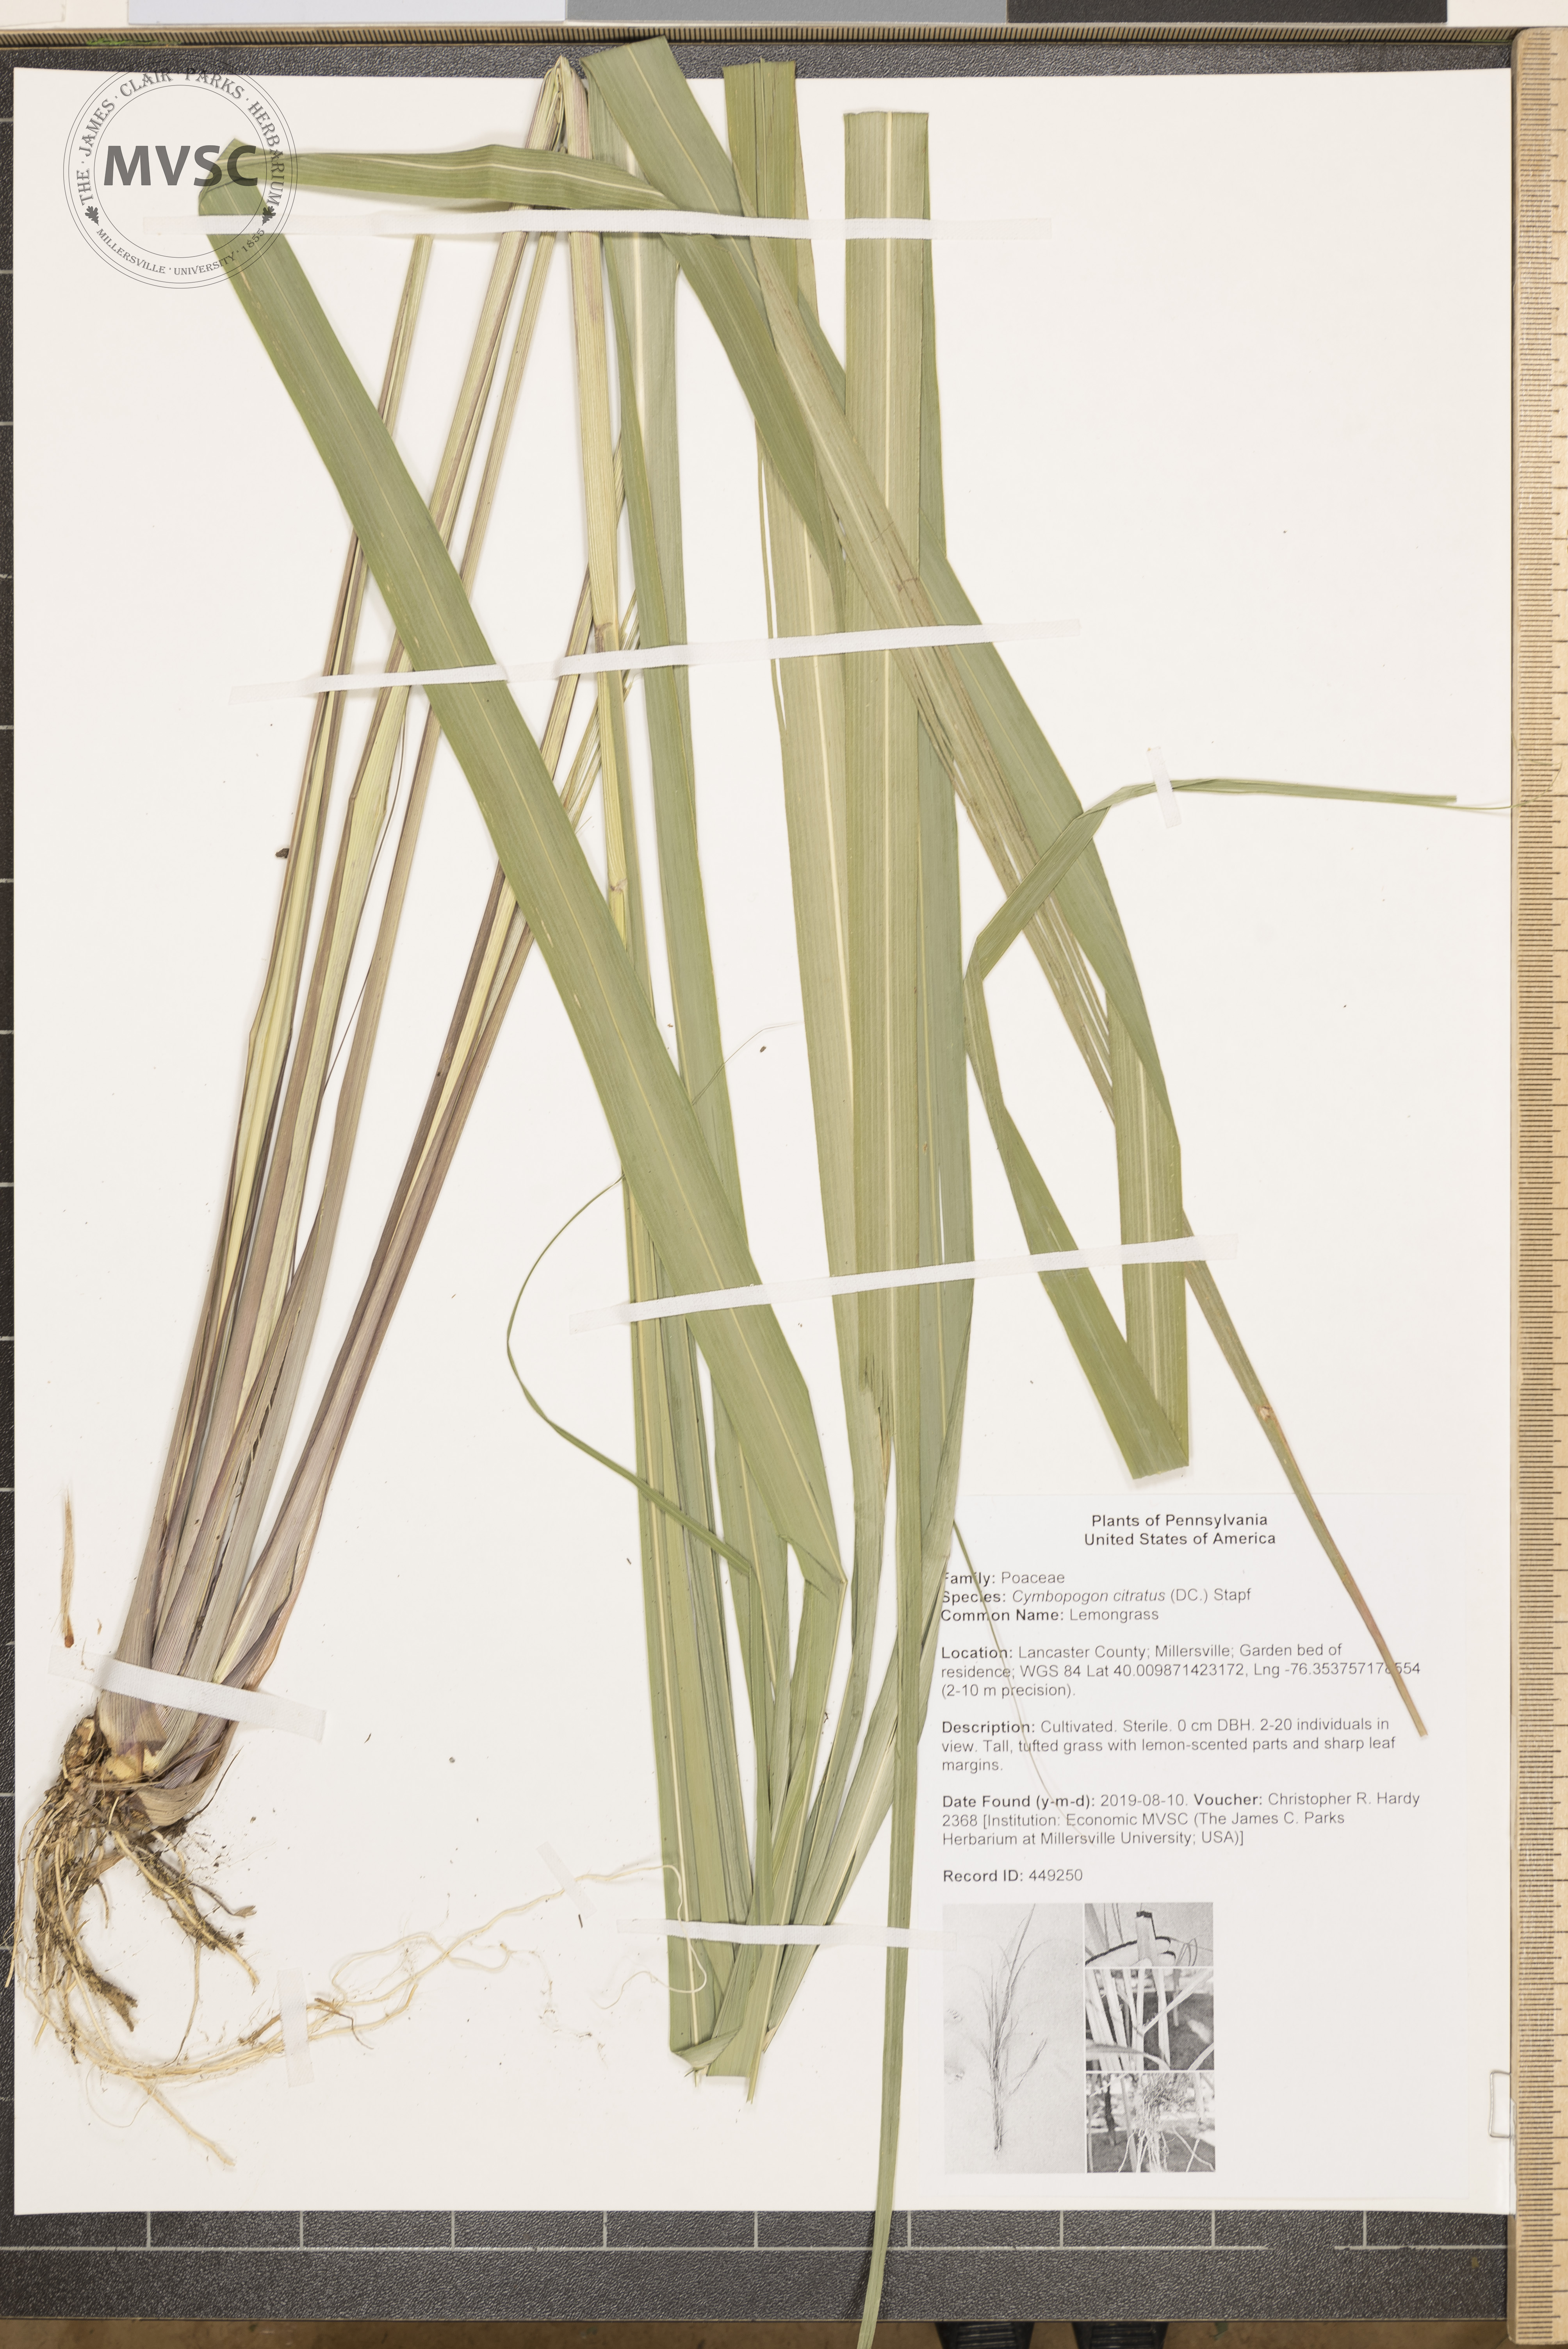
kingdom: Plantae
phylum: Tracheophyta
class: Liliopsida
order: Poales
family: Poaceae
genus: Cymbopogon
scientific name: Cymbopogon citratus
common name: Lemongrass
